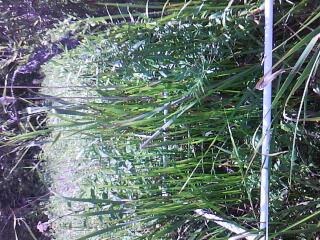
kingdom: Plantae
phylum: Tracheophyta
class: Liliopsida
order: Poales
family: Cyperaceae
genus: Carex
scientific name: Carex hystericina
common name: Bottlebrush sedge
